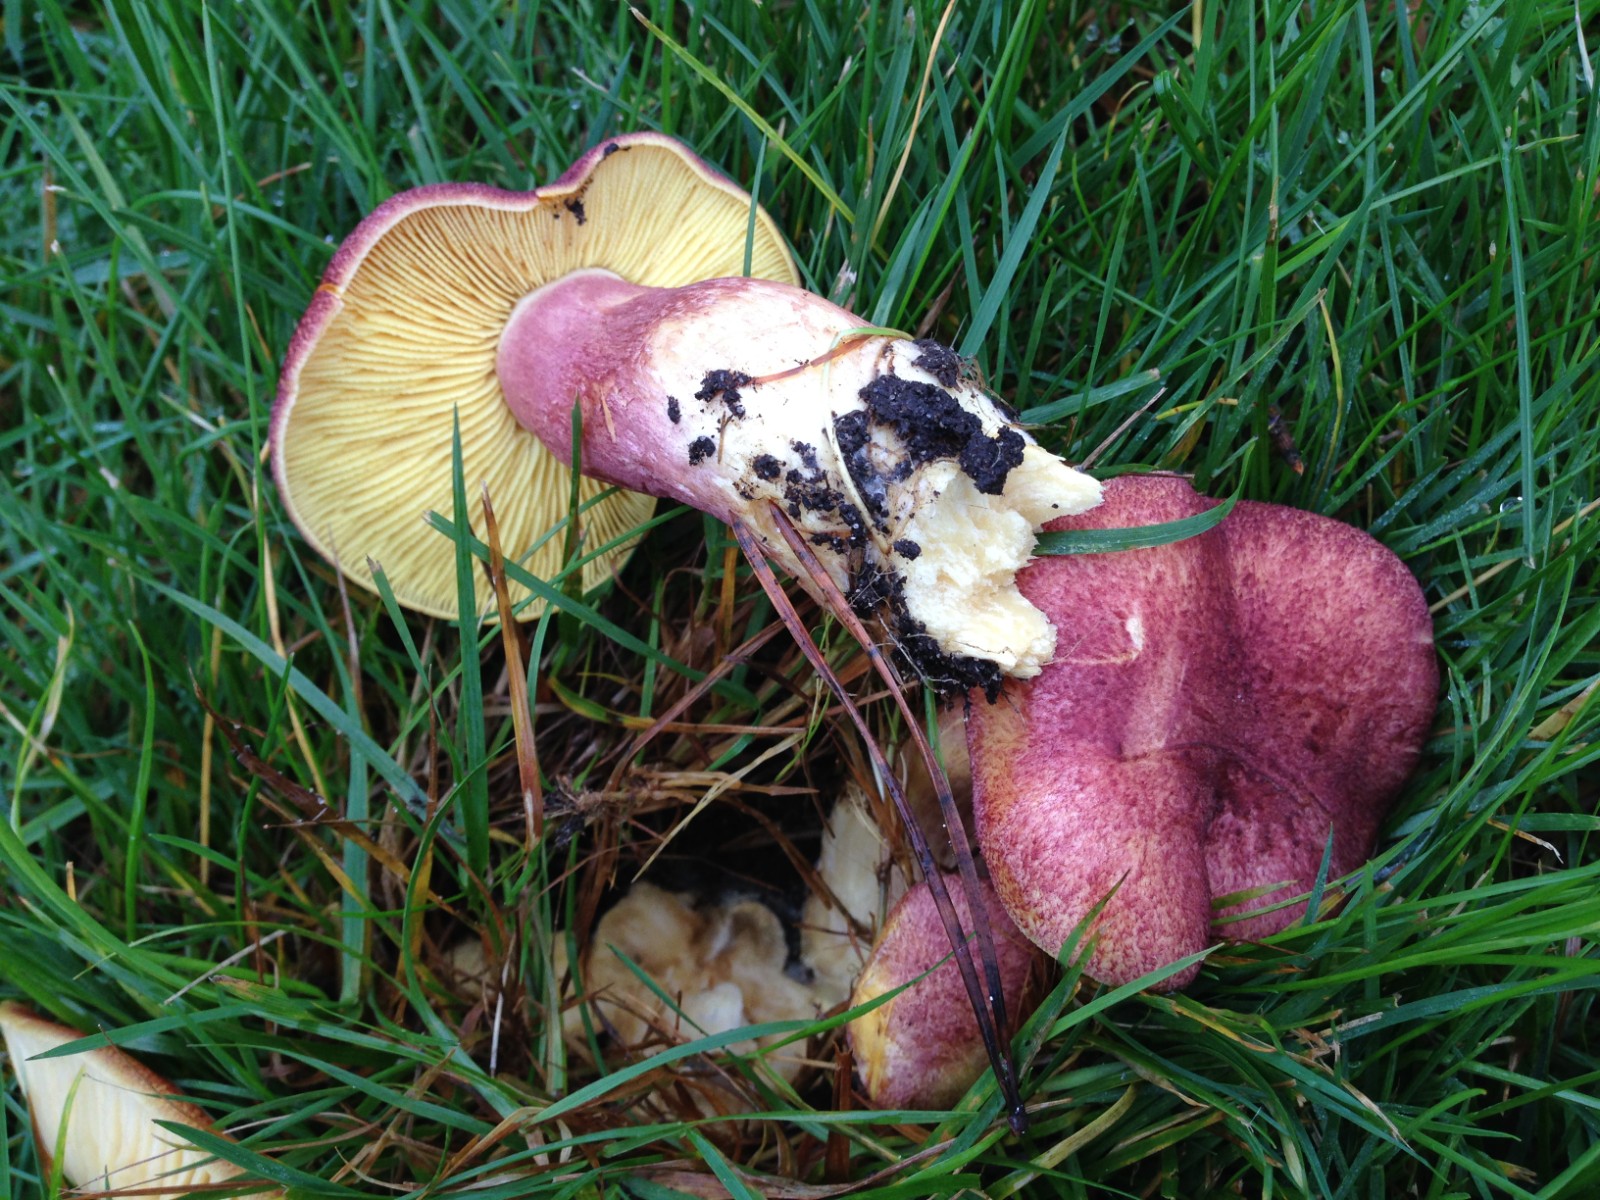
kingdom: Fungi
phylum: Basidiomycota
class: Agaricomycetes
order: Agaricales
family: Tricholomataceae
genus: Tricholomopsis
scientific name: Tricholomopsis rutilans
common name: purpur-væbnerhat
